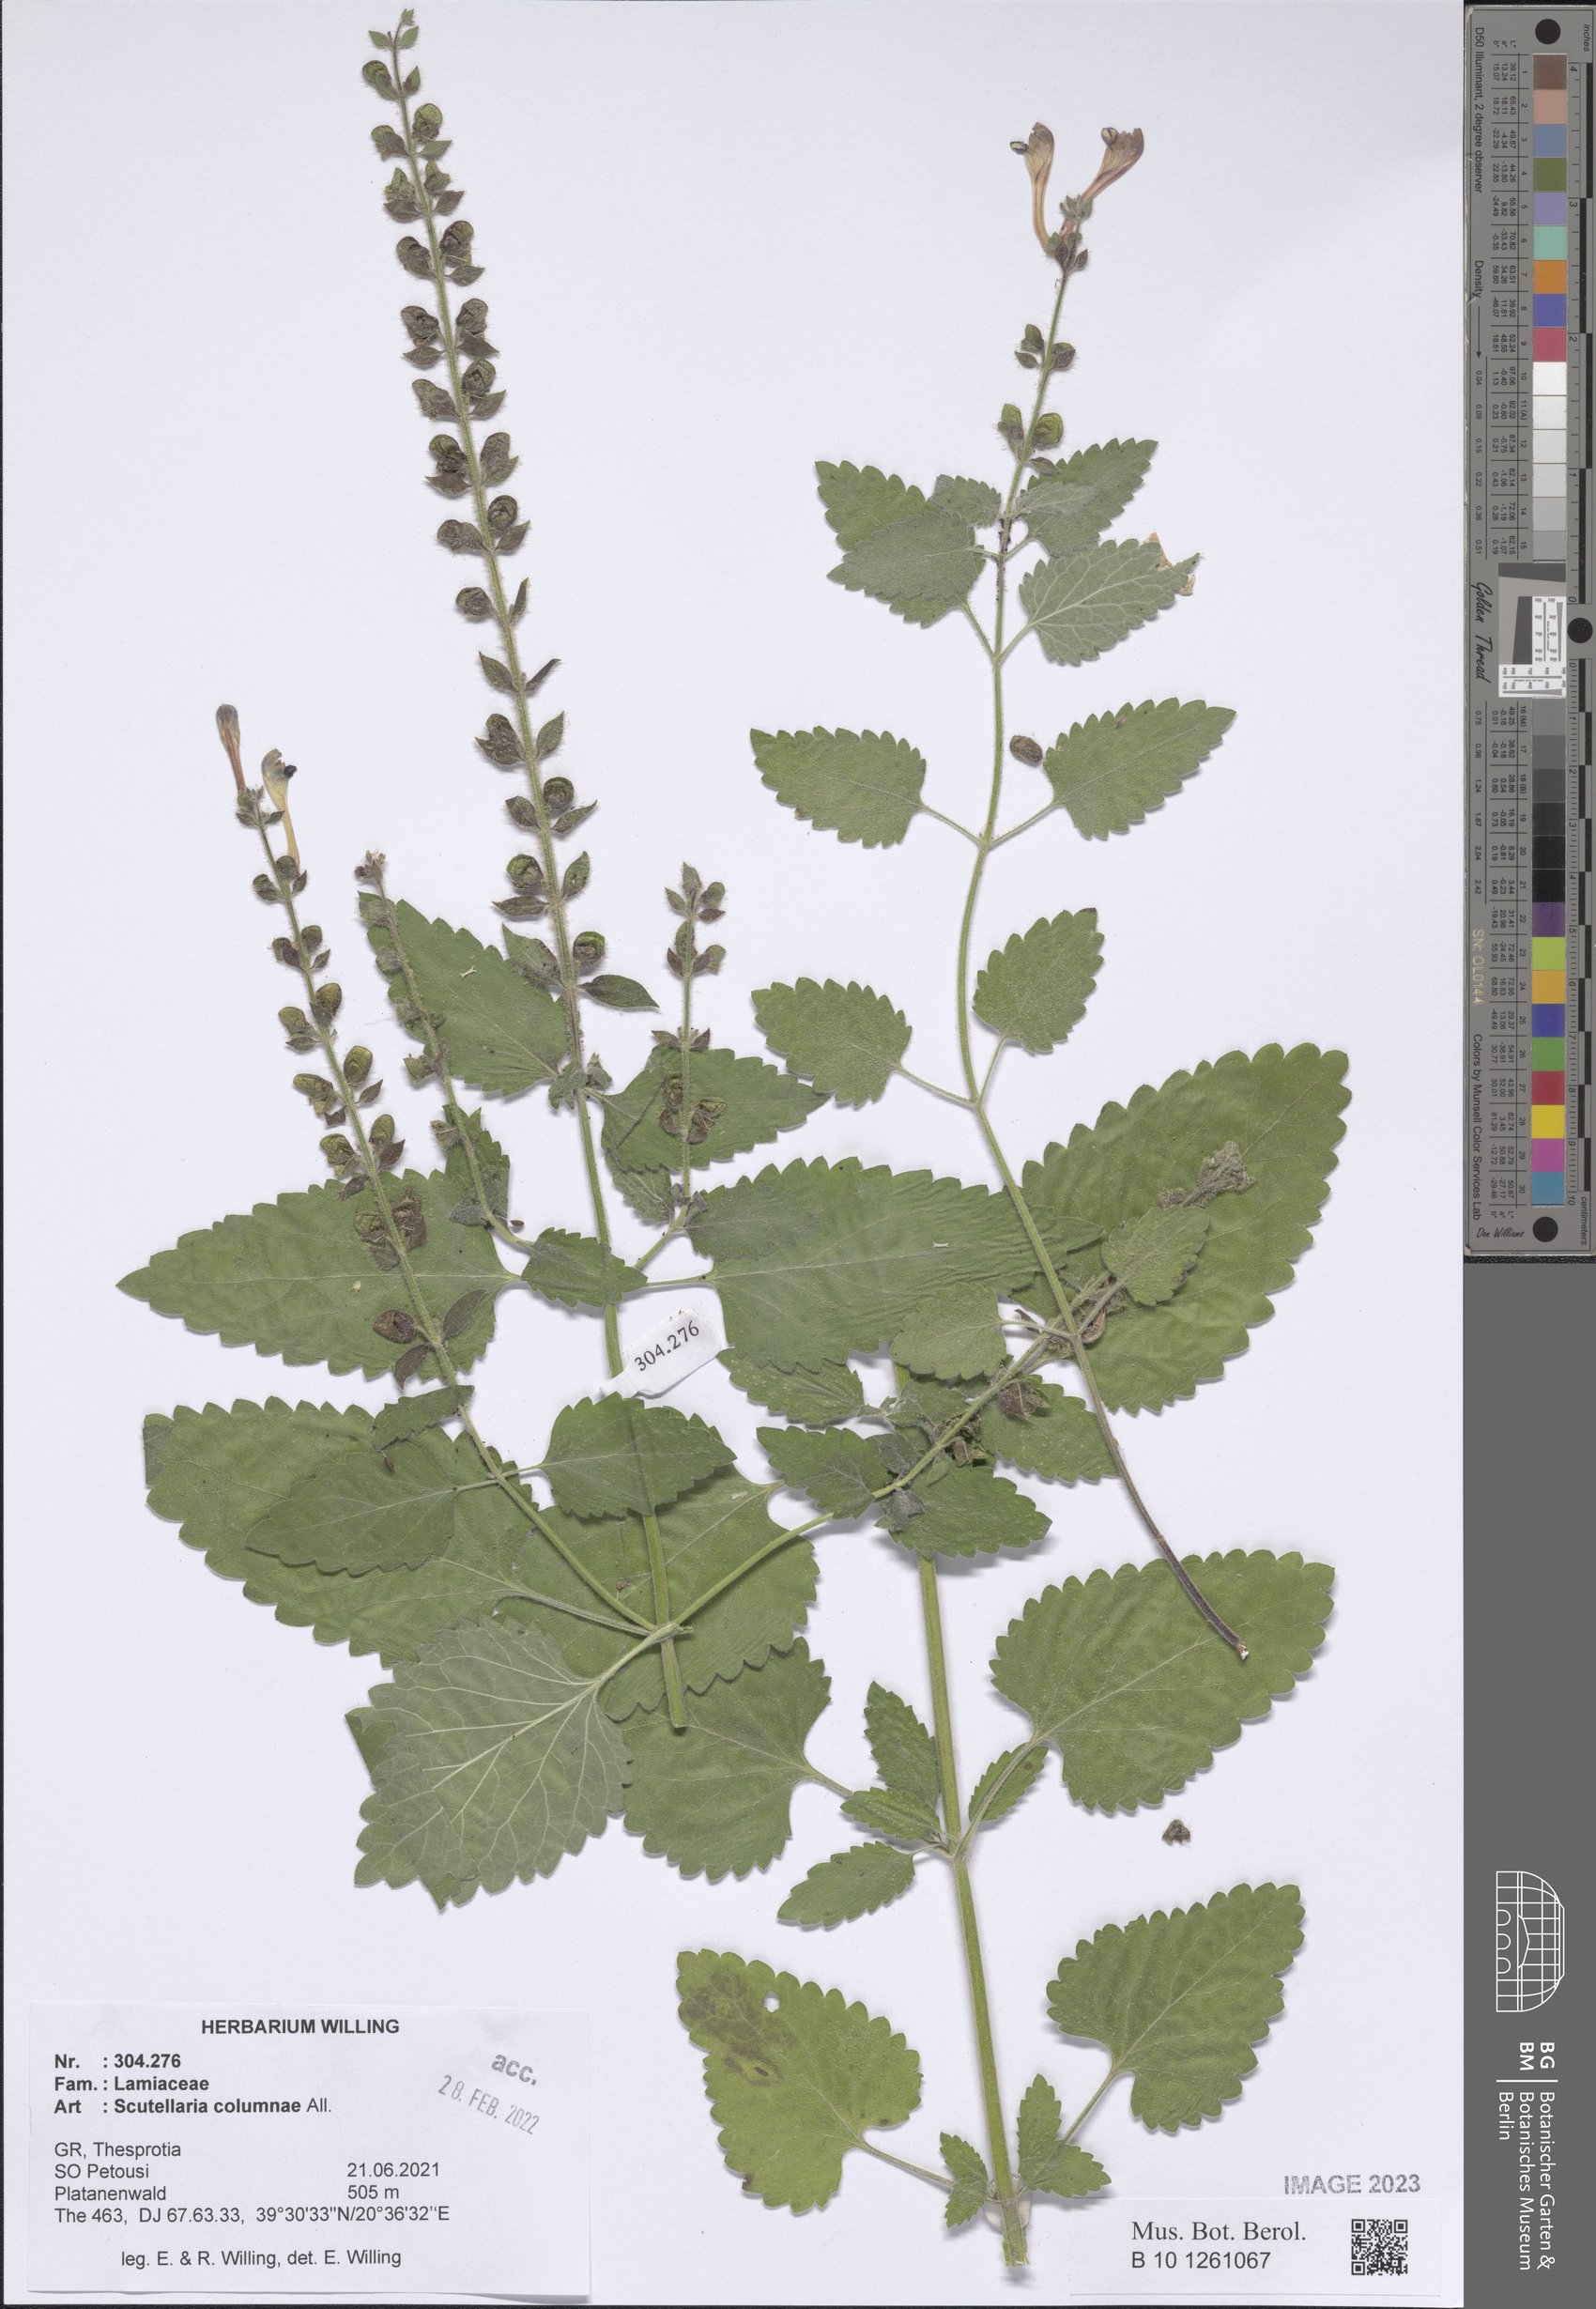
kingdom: Plantae
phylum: Tracheophyta
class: Magnoliopsida
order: Lamiales
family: Lamiaceae
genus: Scutellaria
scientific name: Scutellaria columnae
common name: Large skullcap
